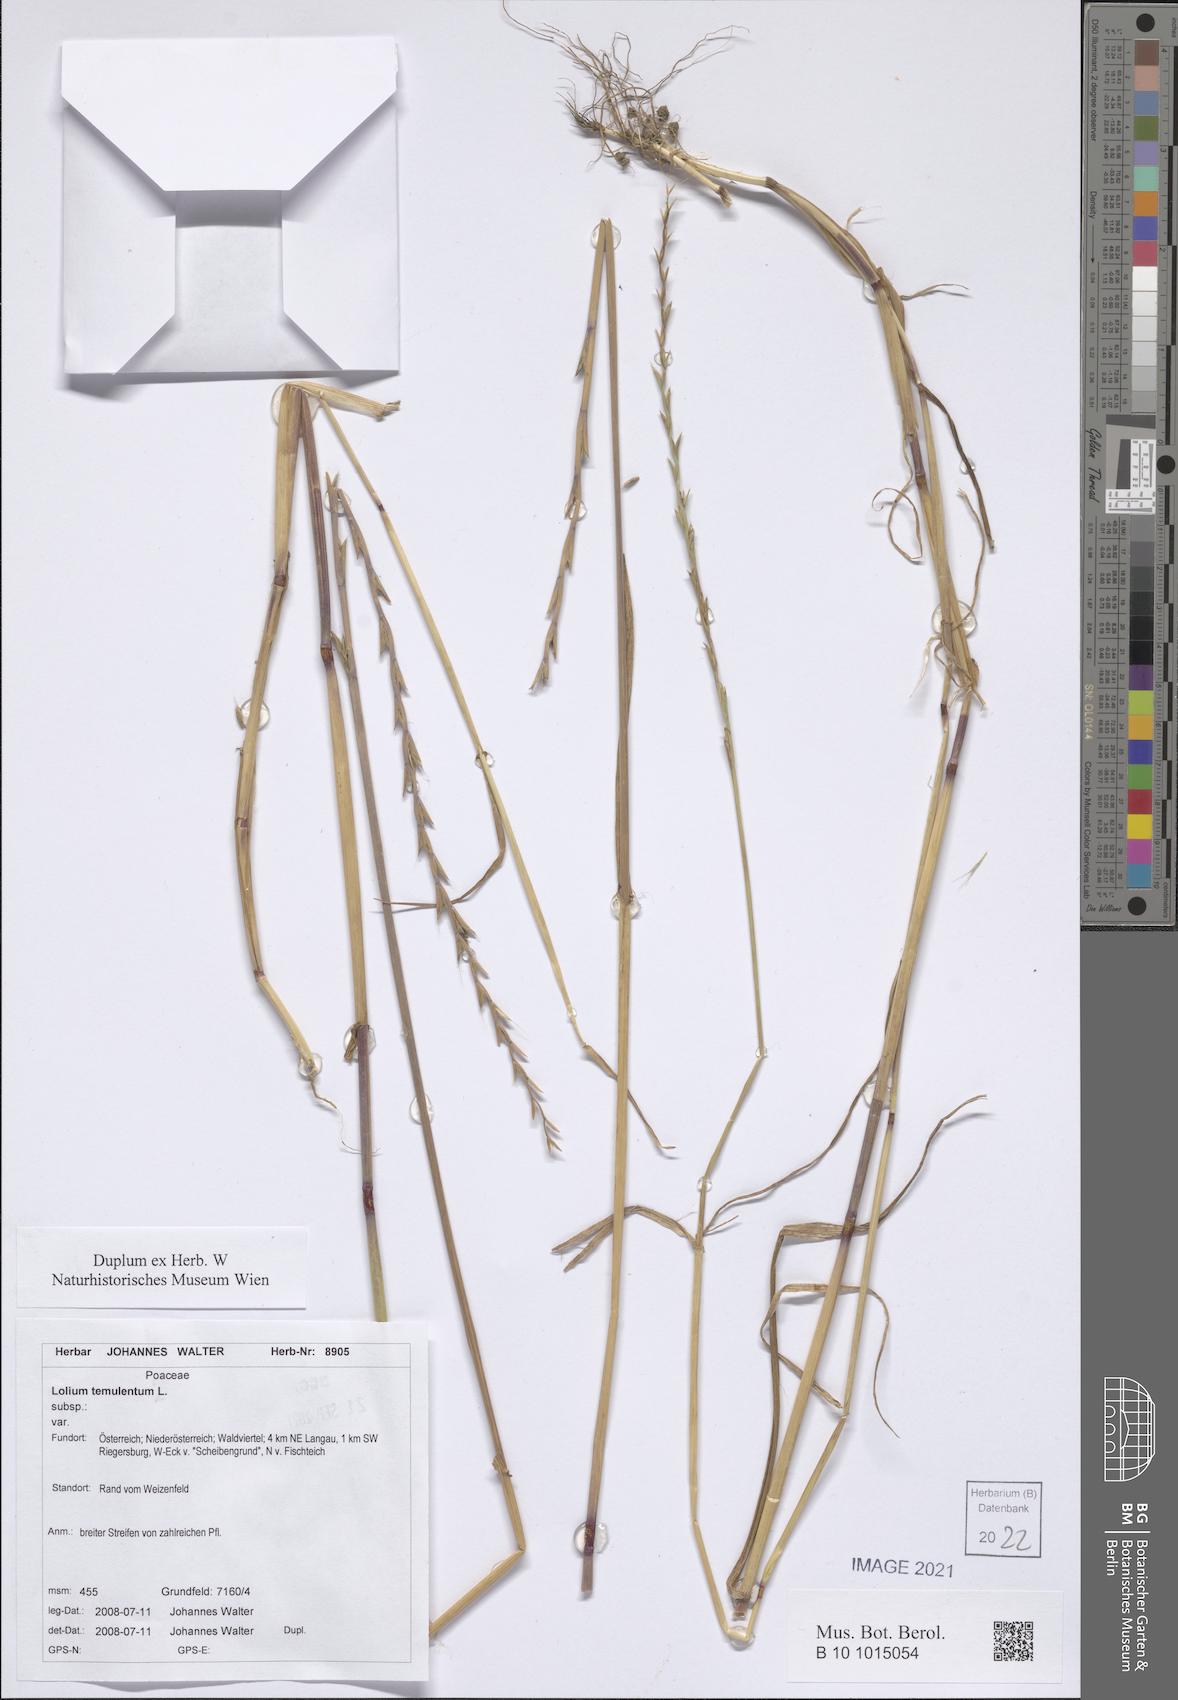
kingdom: Plantae
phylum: Tracheophyta
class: Liliopsida
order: Poales
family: Poaceae
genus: Lolium
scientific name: Lolium temulentum
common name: Darnel
